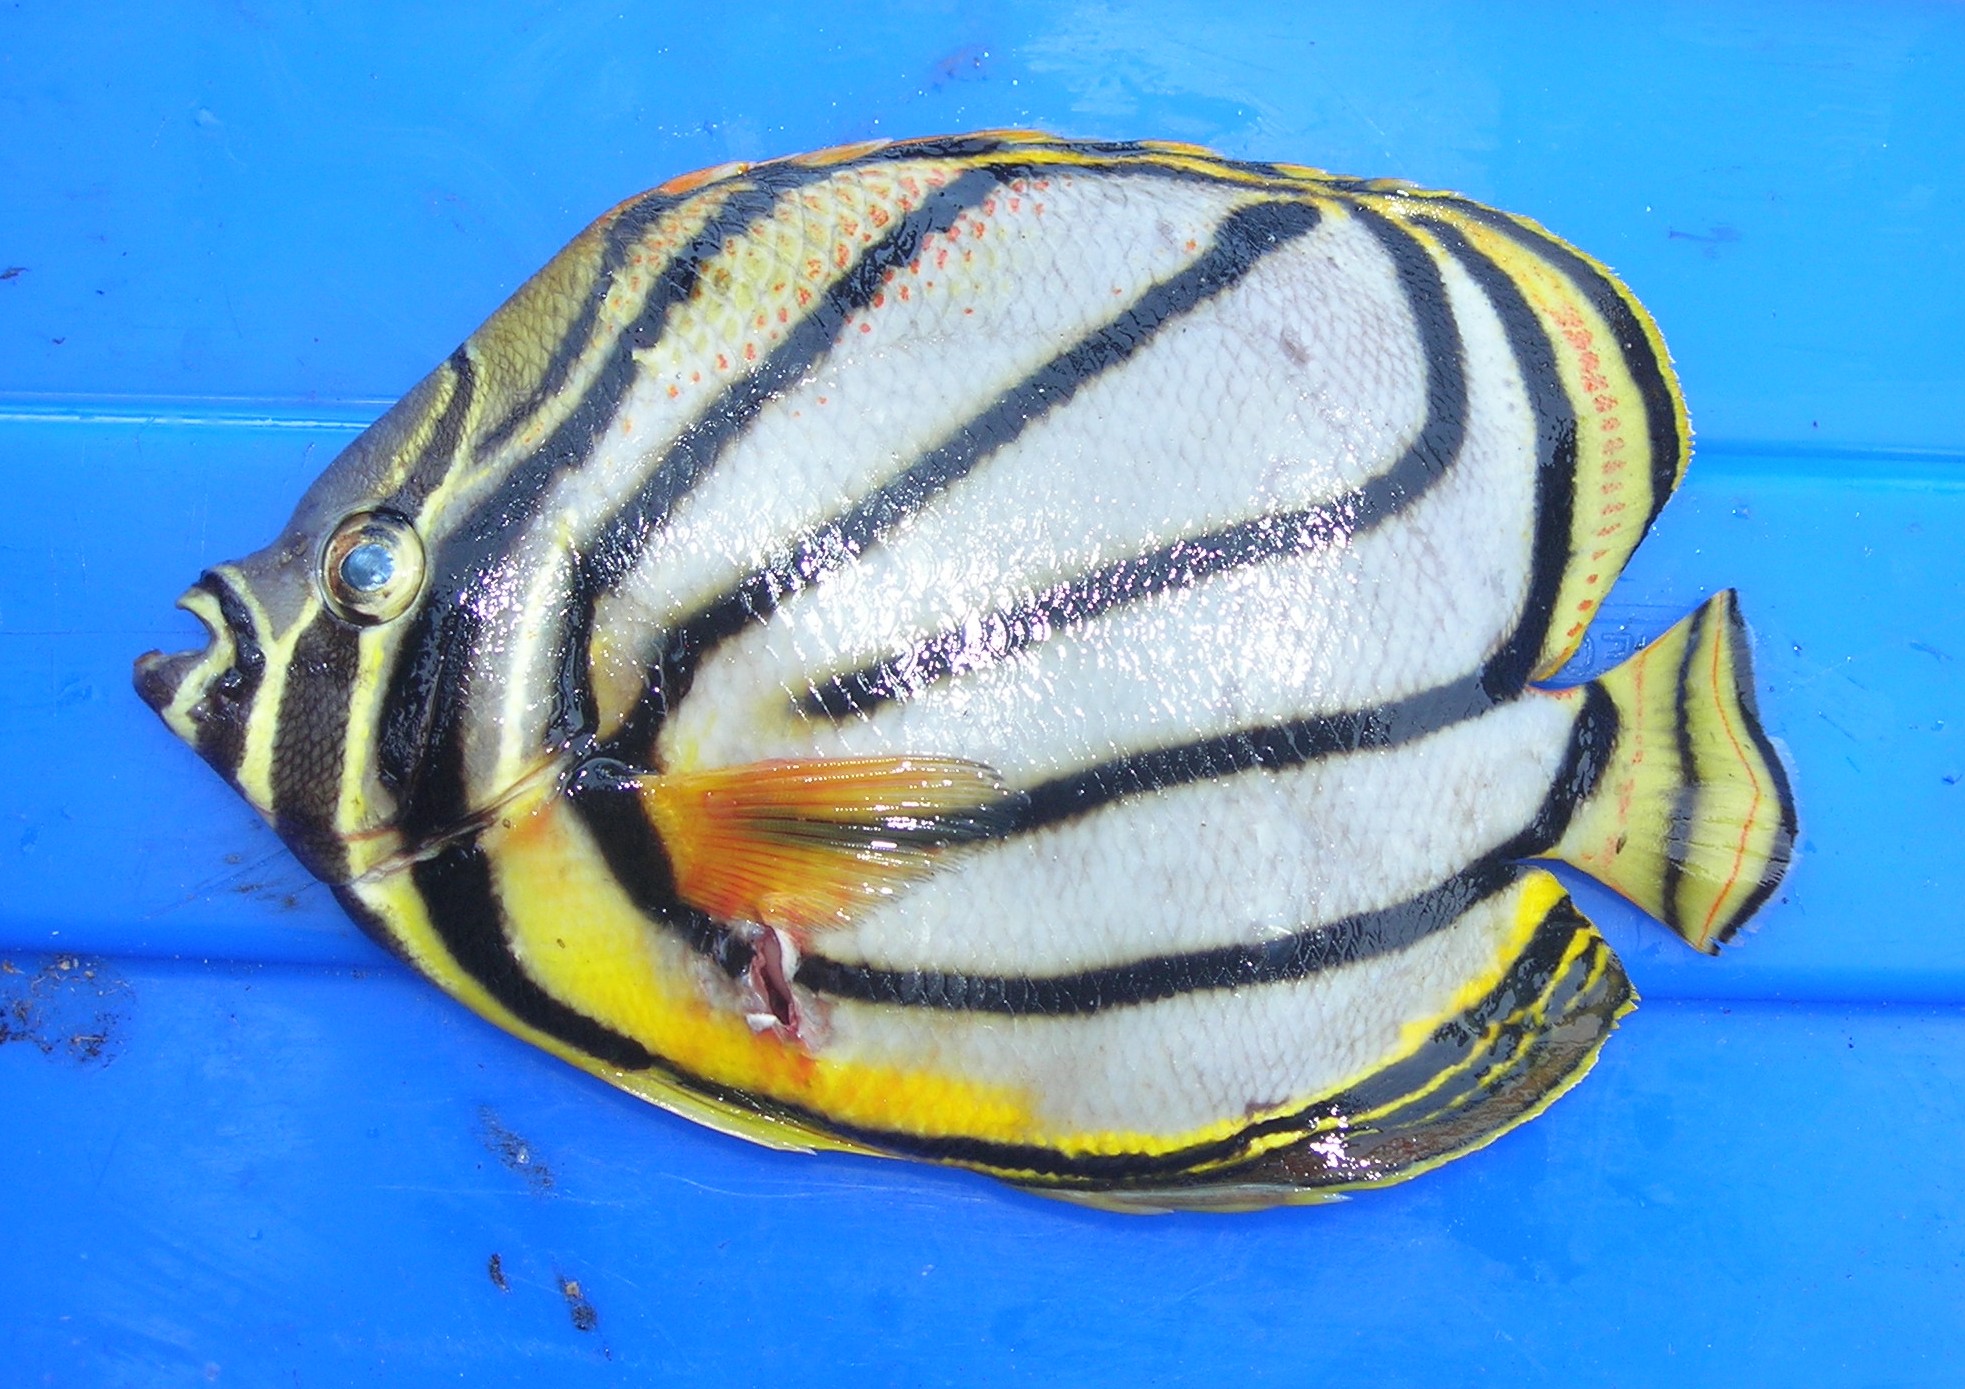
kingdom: Animalia
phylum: Chordata
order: Perciformes
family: Chaetodontidae
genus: Chaetodon
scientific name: Chaetodon meyeri
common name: Meyer's butterflyfish
